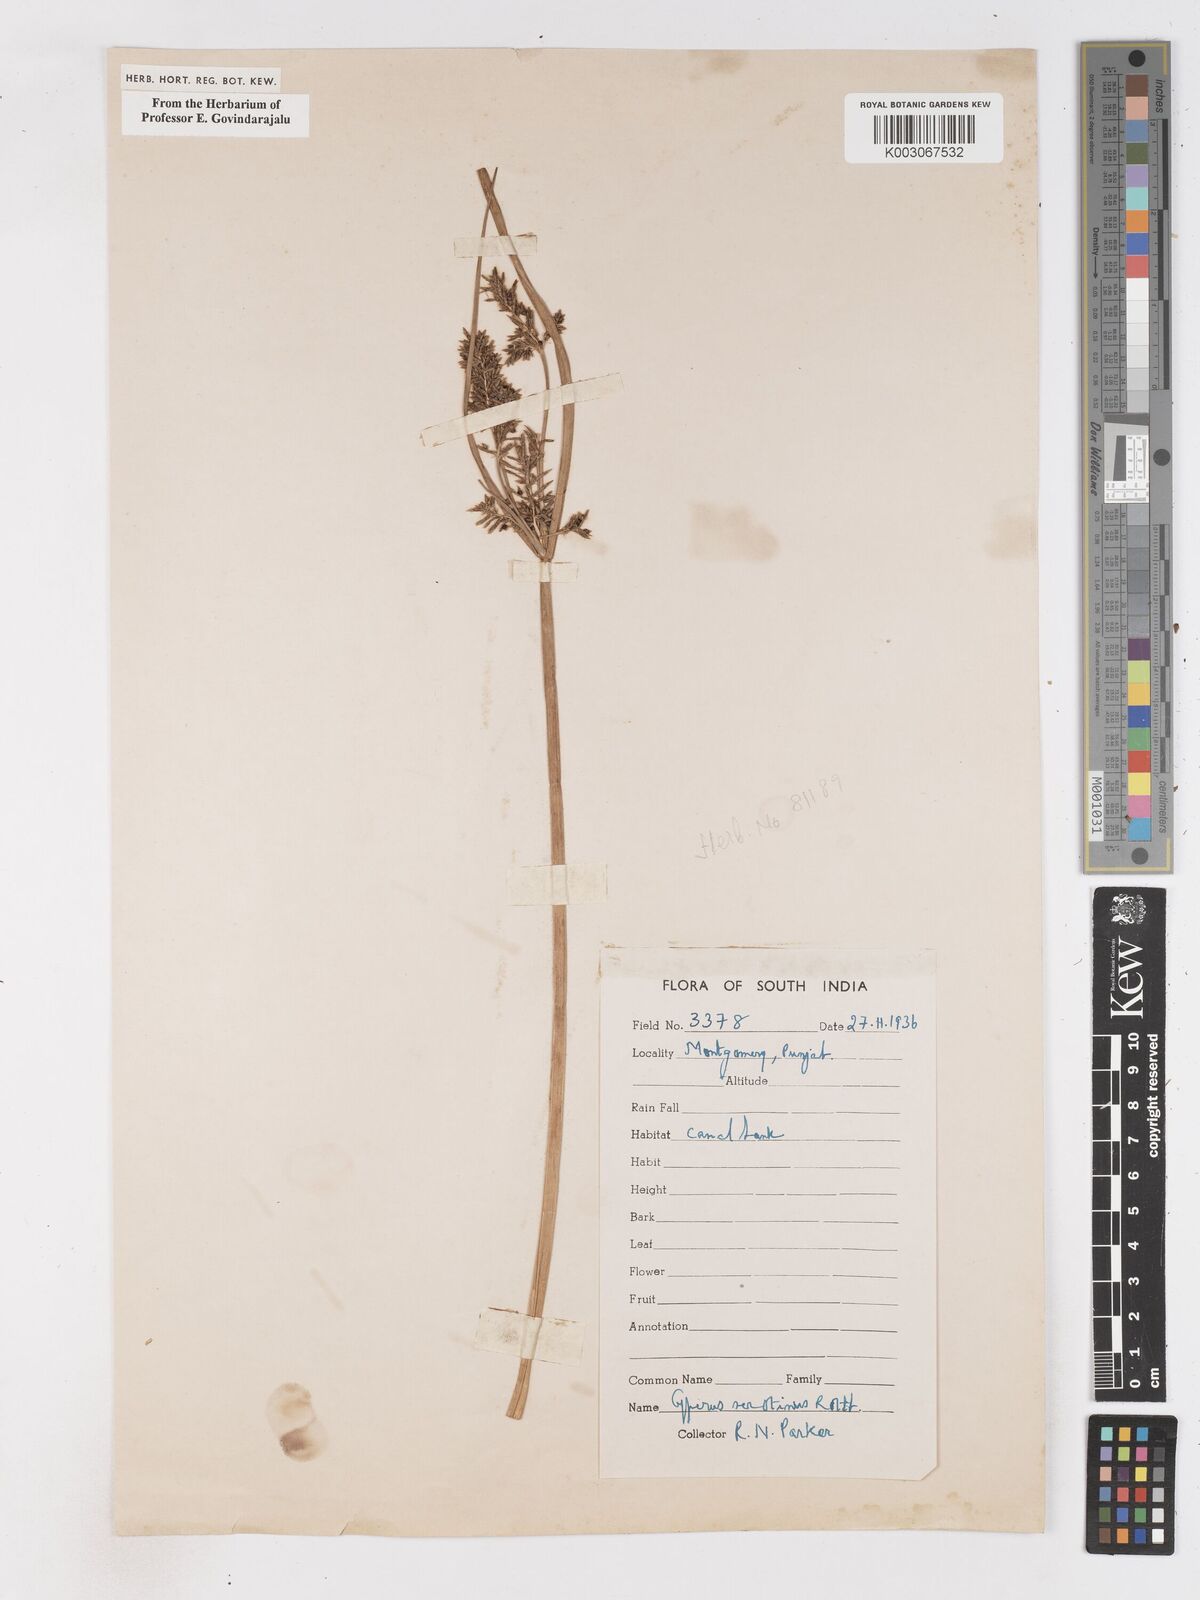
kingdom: Plantae
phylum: Tracheophyta
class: Liliopsida
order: Poales
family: Cyperaceae
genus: Cyperus
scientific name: Cyperus serotinus
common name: Tidalmarsh flatsedge
